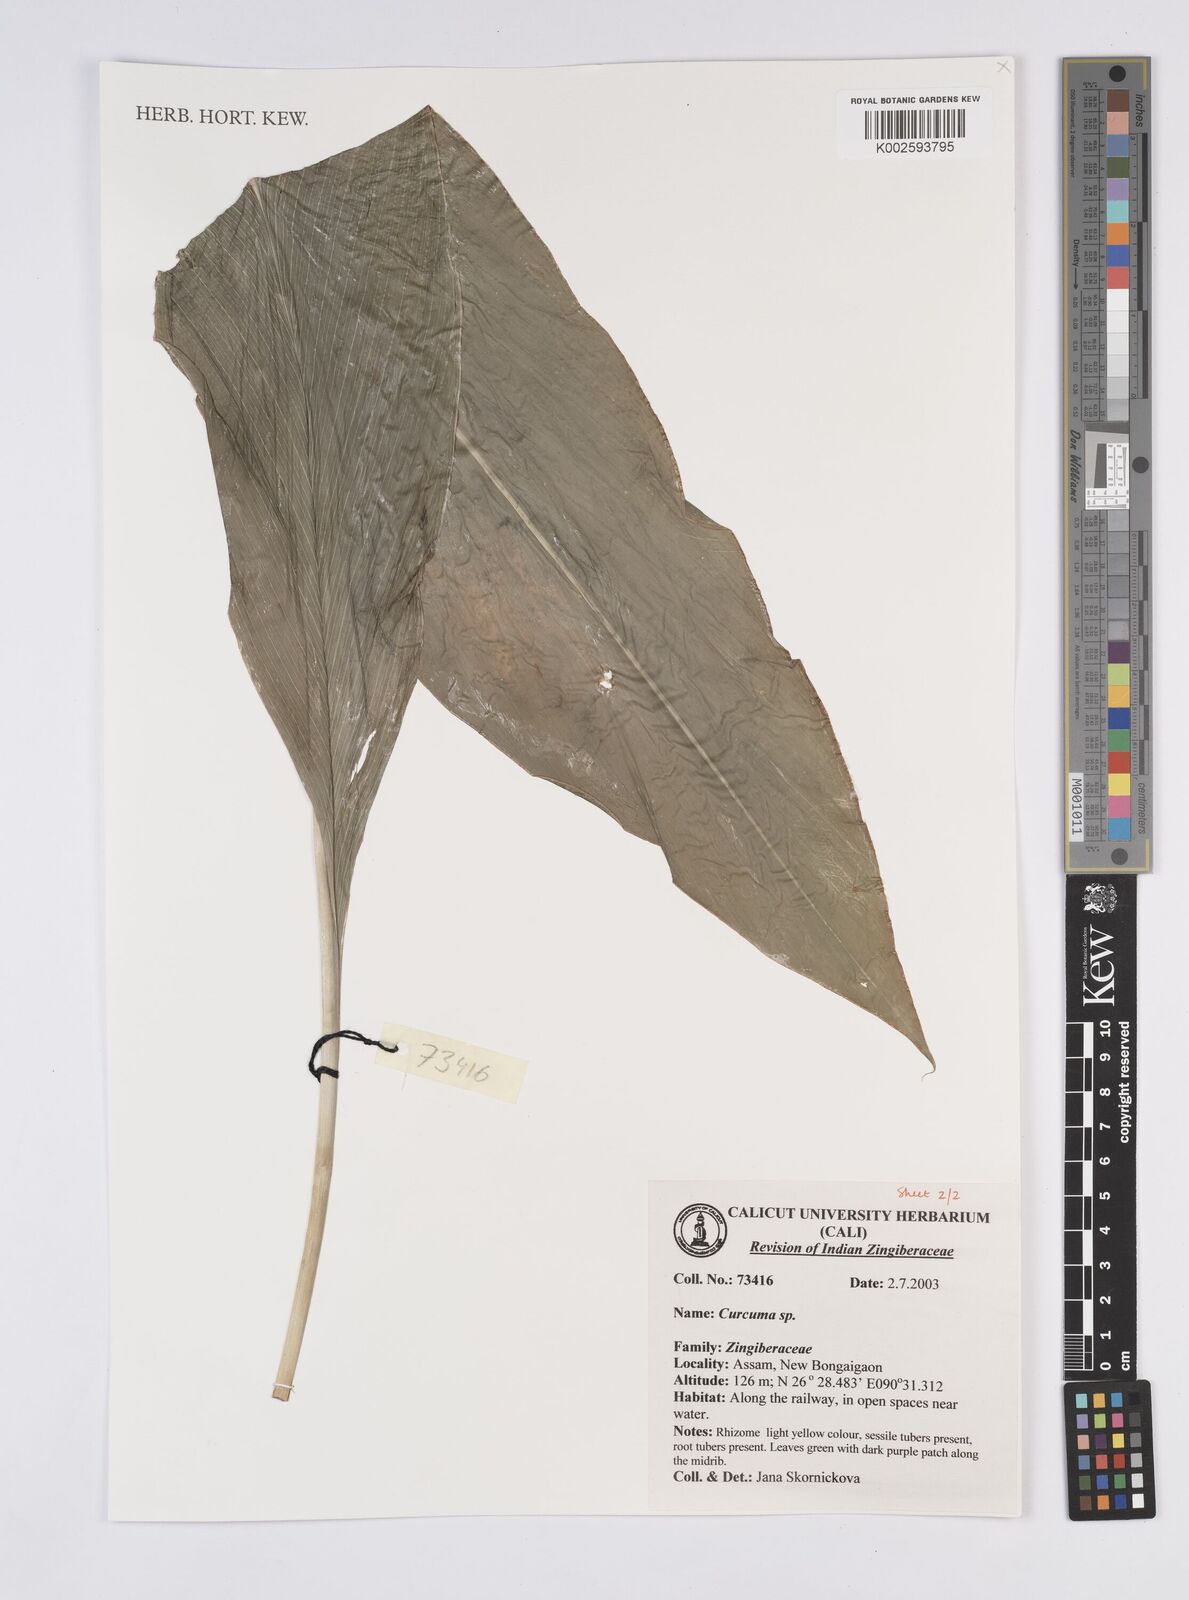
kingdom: Plantae
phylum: Tracheophyta
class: Liliopsida
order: Zingiberales
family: Zingiberaceae
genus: Curcuma
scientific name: Curcuma
